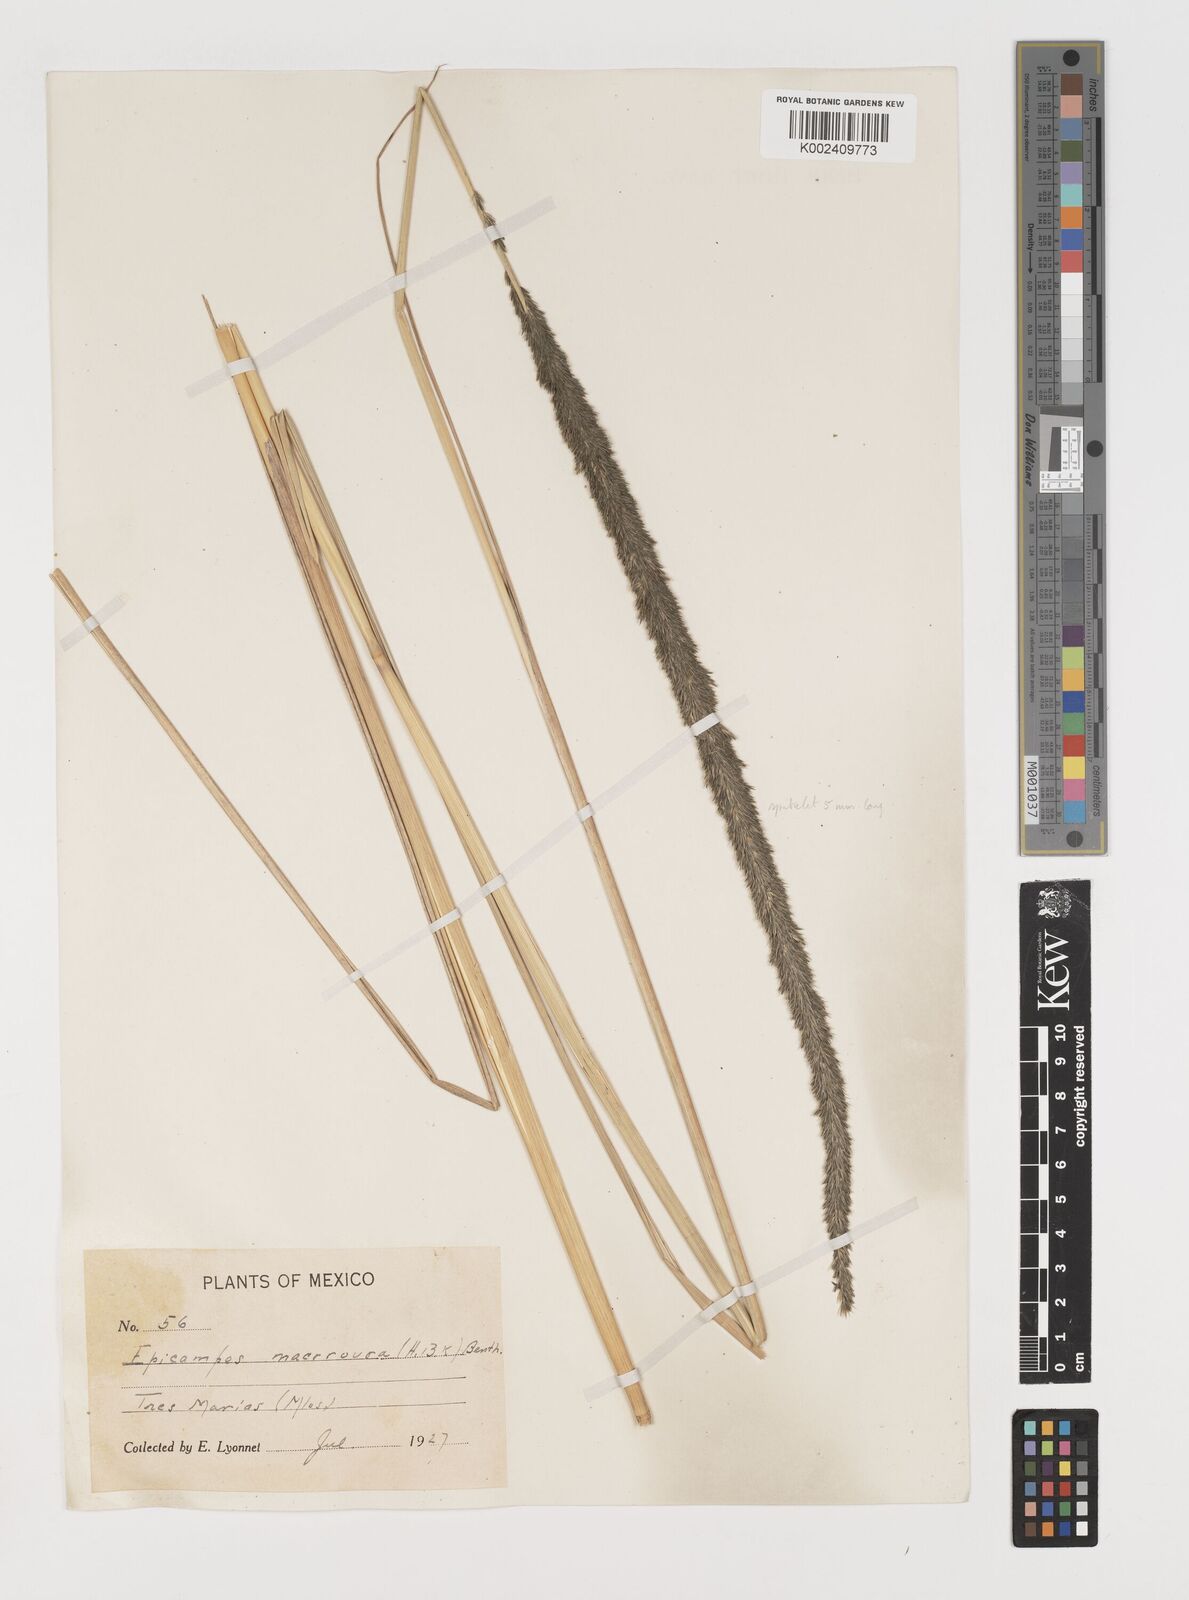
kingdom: Plantae
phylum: Tracheophyta
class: Liliopsida
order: Poales
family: Poaceae
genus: Muhlenbergia
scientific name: Muhlenbergia macroura
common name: Mexican broomroot
